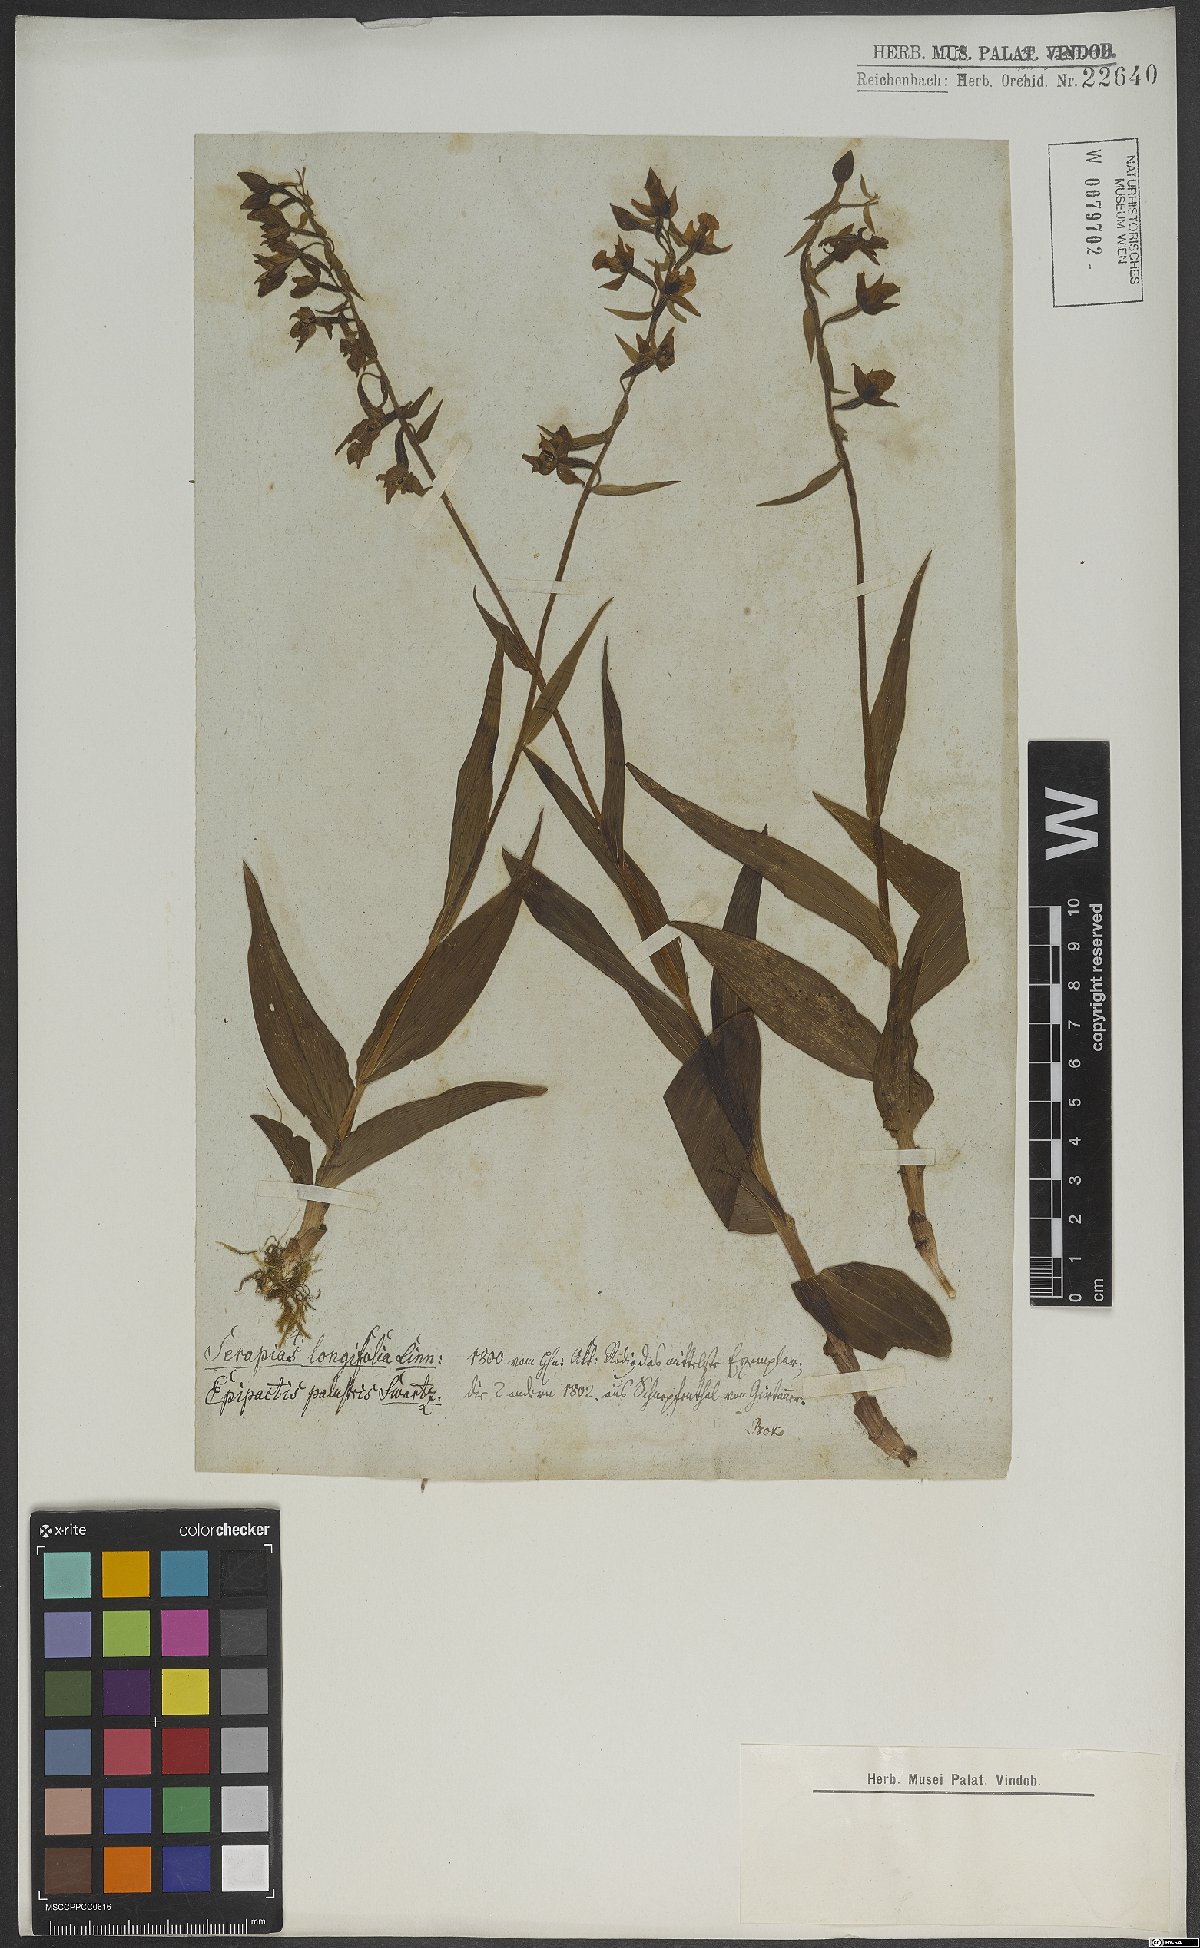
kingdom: Plantae
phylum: Tracheophyta
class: Liliopsida
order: Asparagales
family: Orchidaceae
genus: Epipactis
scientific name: Epipactis palustris
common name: Marsh helleborine
